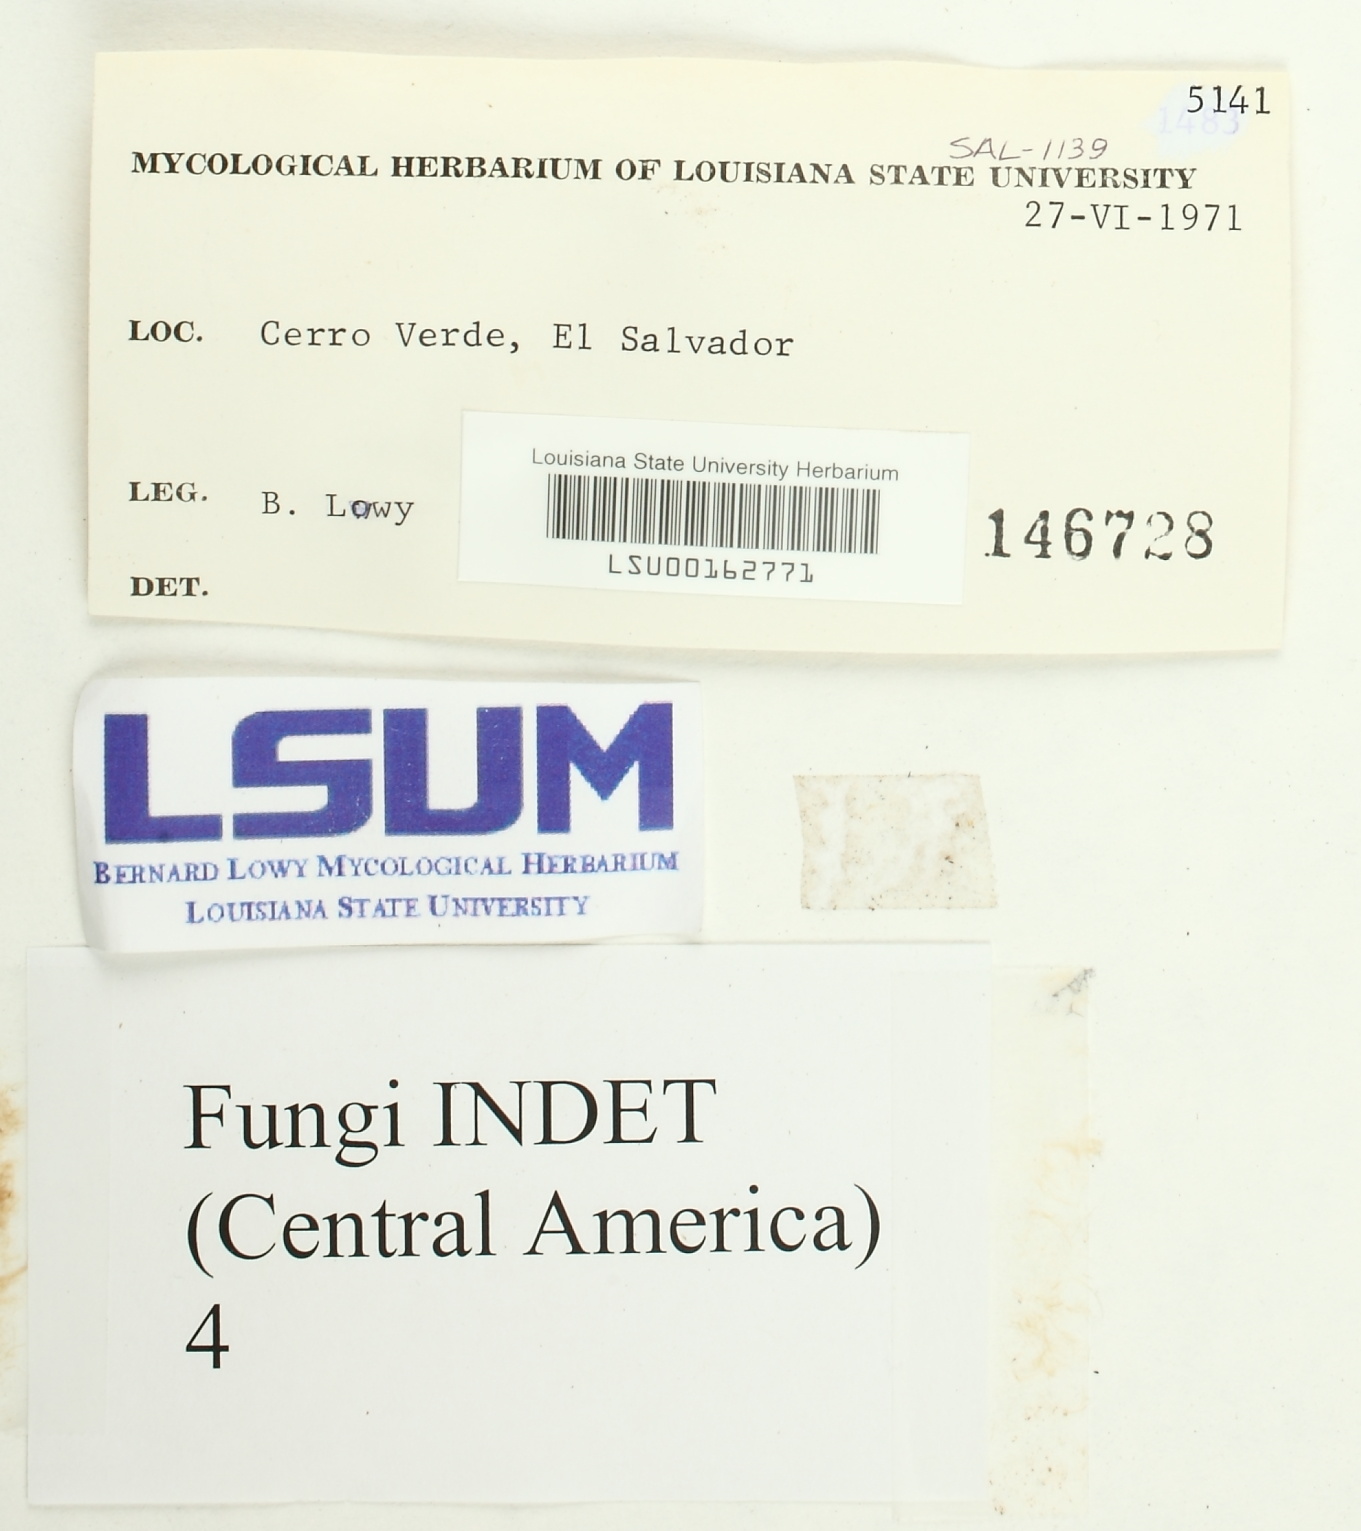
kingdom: Fungi
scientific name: Fungi
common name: Fungi
